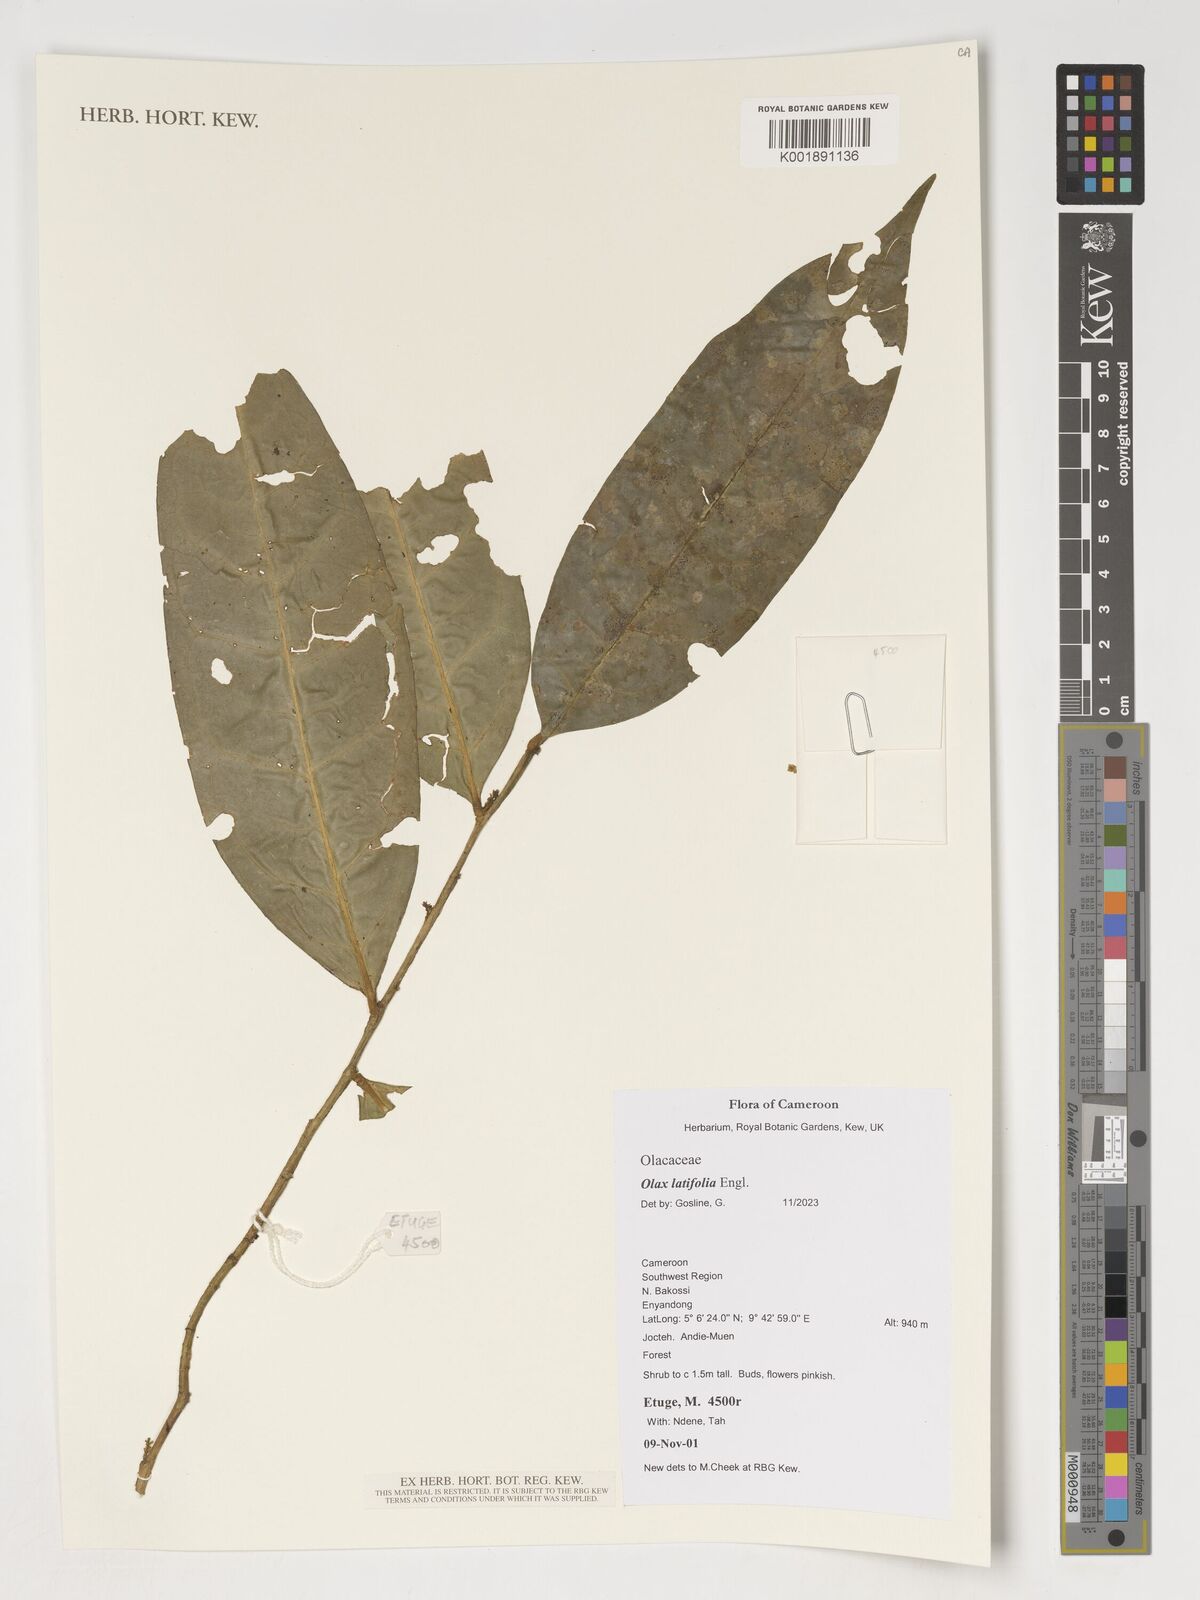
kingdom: Plantae
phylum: Tracheophyta
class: Magnoliopsida
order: Santalales
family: Olacaceae
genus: Olax
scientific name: Olax latifolia
